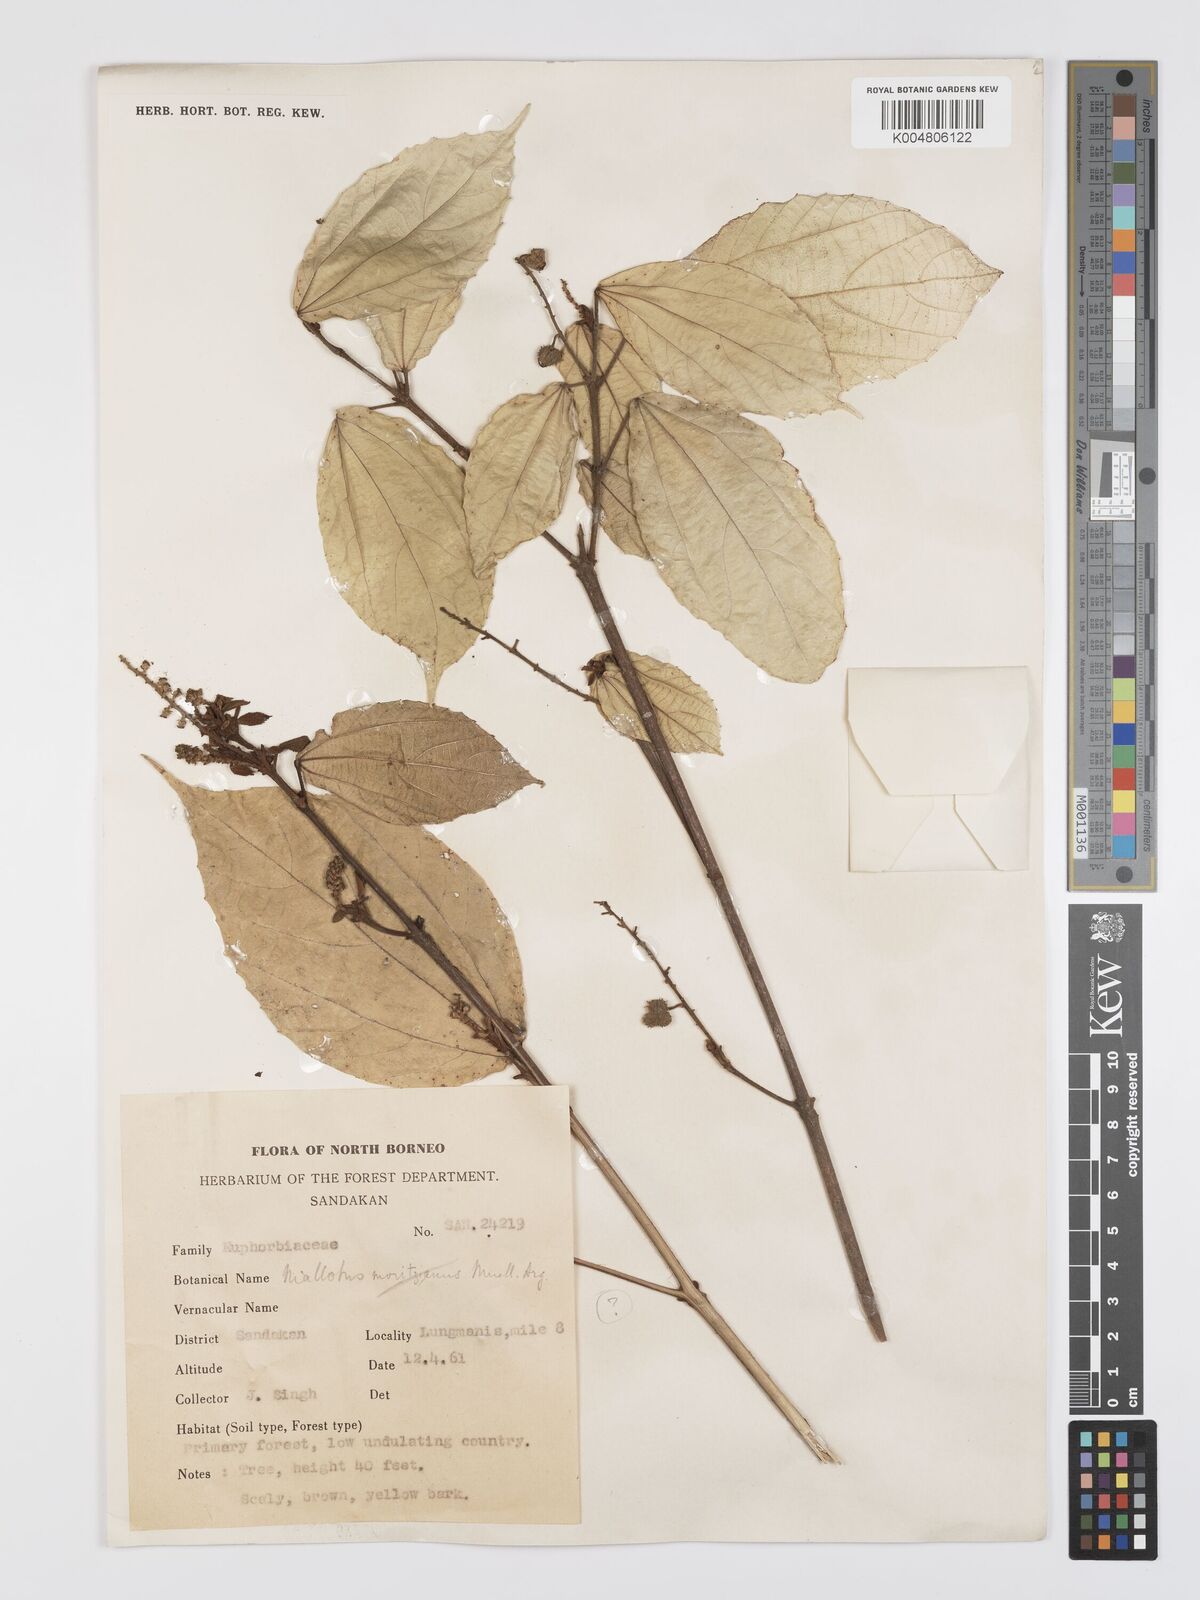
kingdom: Plantae
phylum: Tracheophyta
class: Magnoliopsida
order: Malpighiales
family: Euphorbiaceae
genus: Mallotus
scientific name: Mallotus korthalsii
